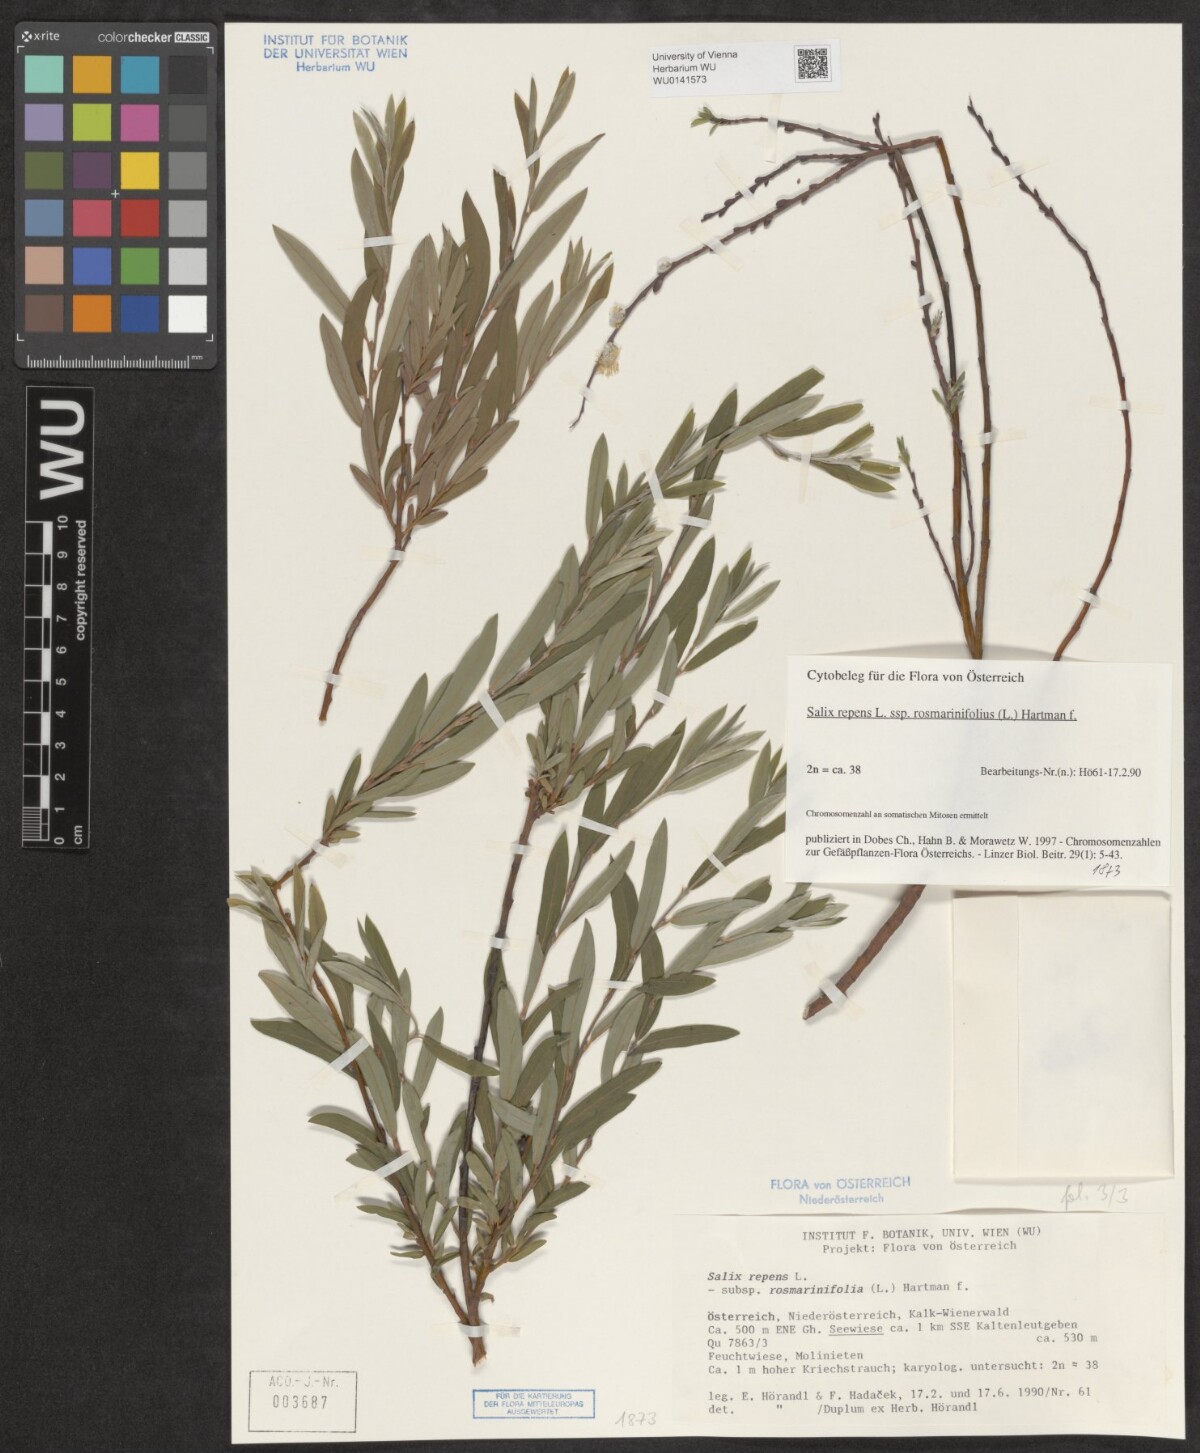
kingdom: Plantae
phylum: Tracheophyta
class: Magnoliopsida
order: Malpighiales
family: Salicaceae
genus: Salix
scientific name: Salix repens
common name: Creeping willow
